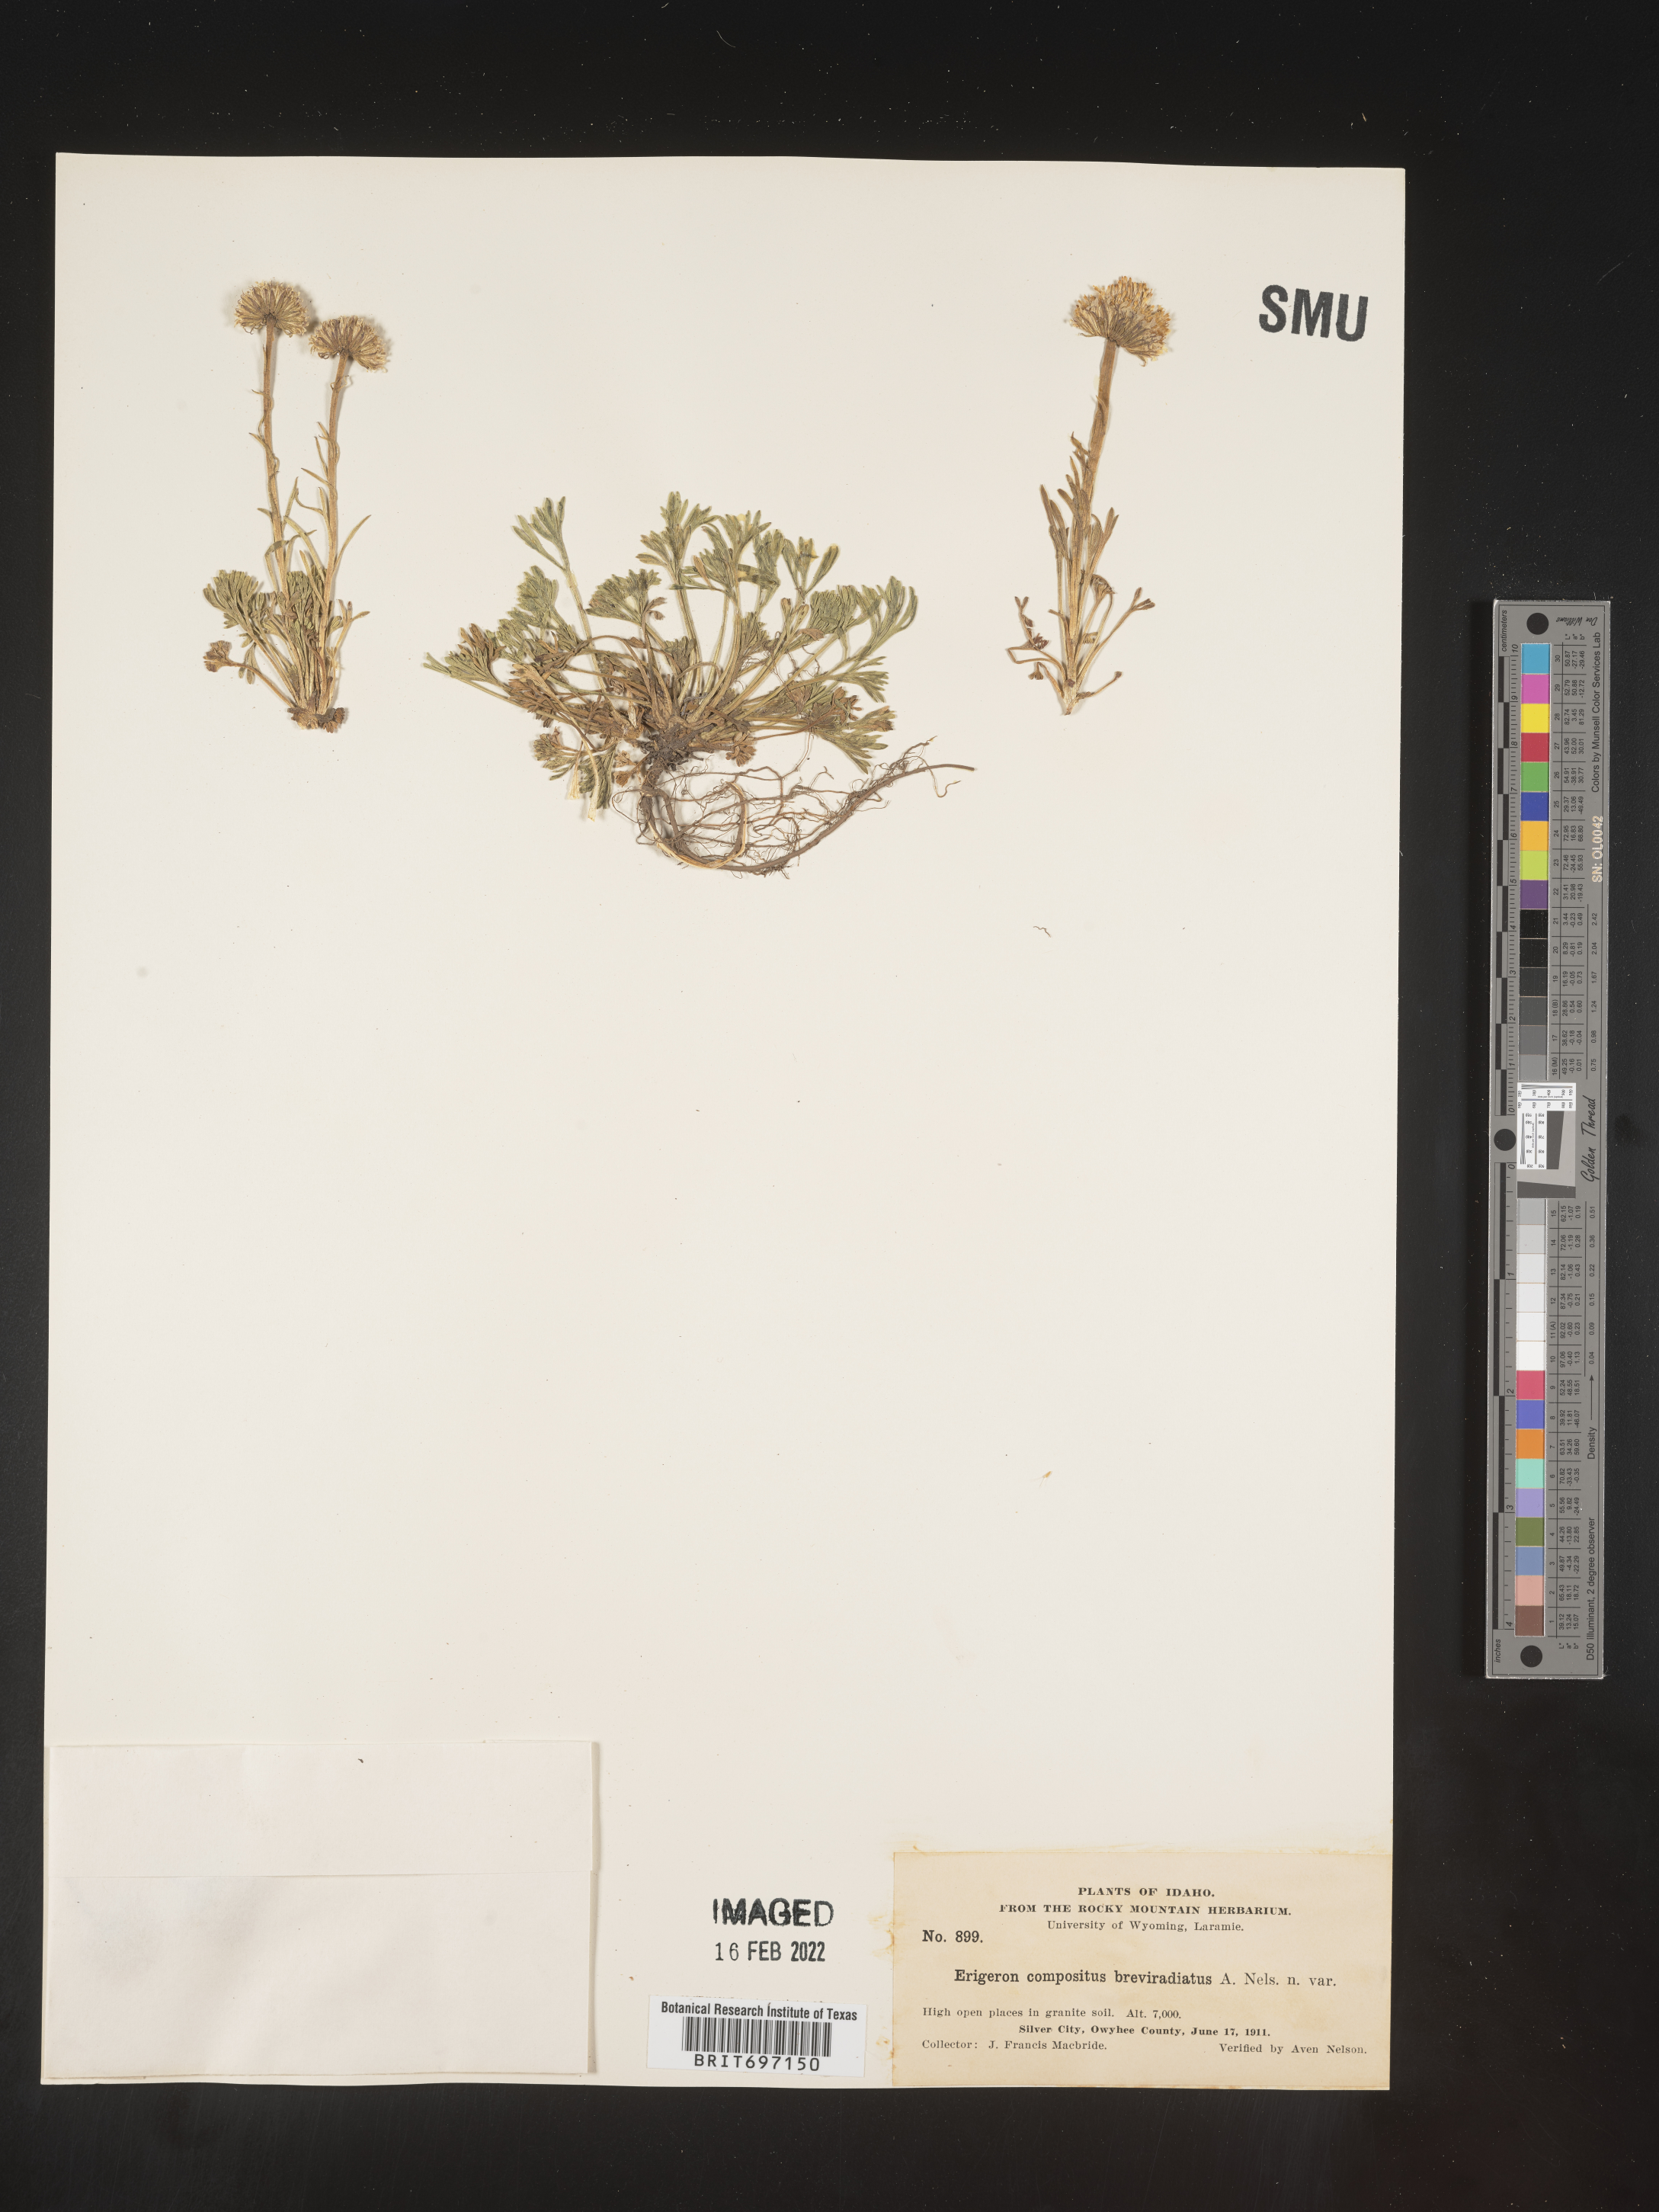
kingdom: Plantae
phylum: Tracheophyta
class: Magnoliopsida
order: Asterales
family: Asteraceae
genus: Erigeron
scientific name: Erigeron compositus
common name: Dwarf mountain fleabane
